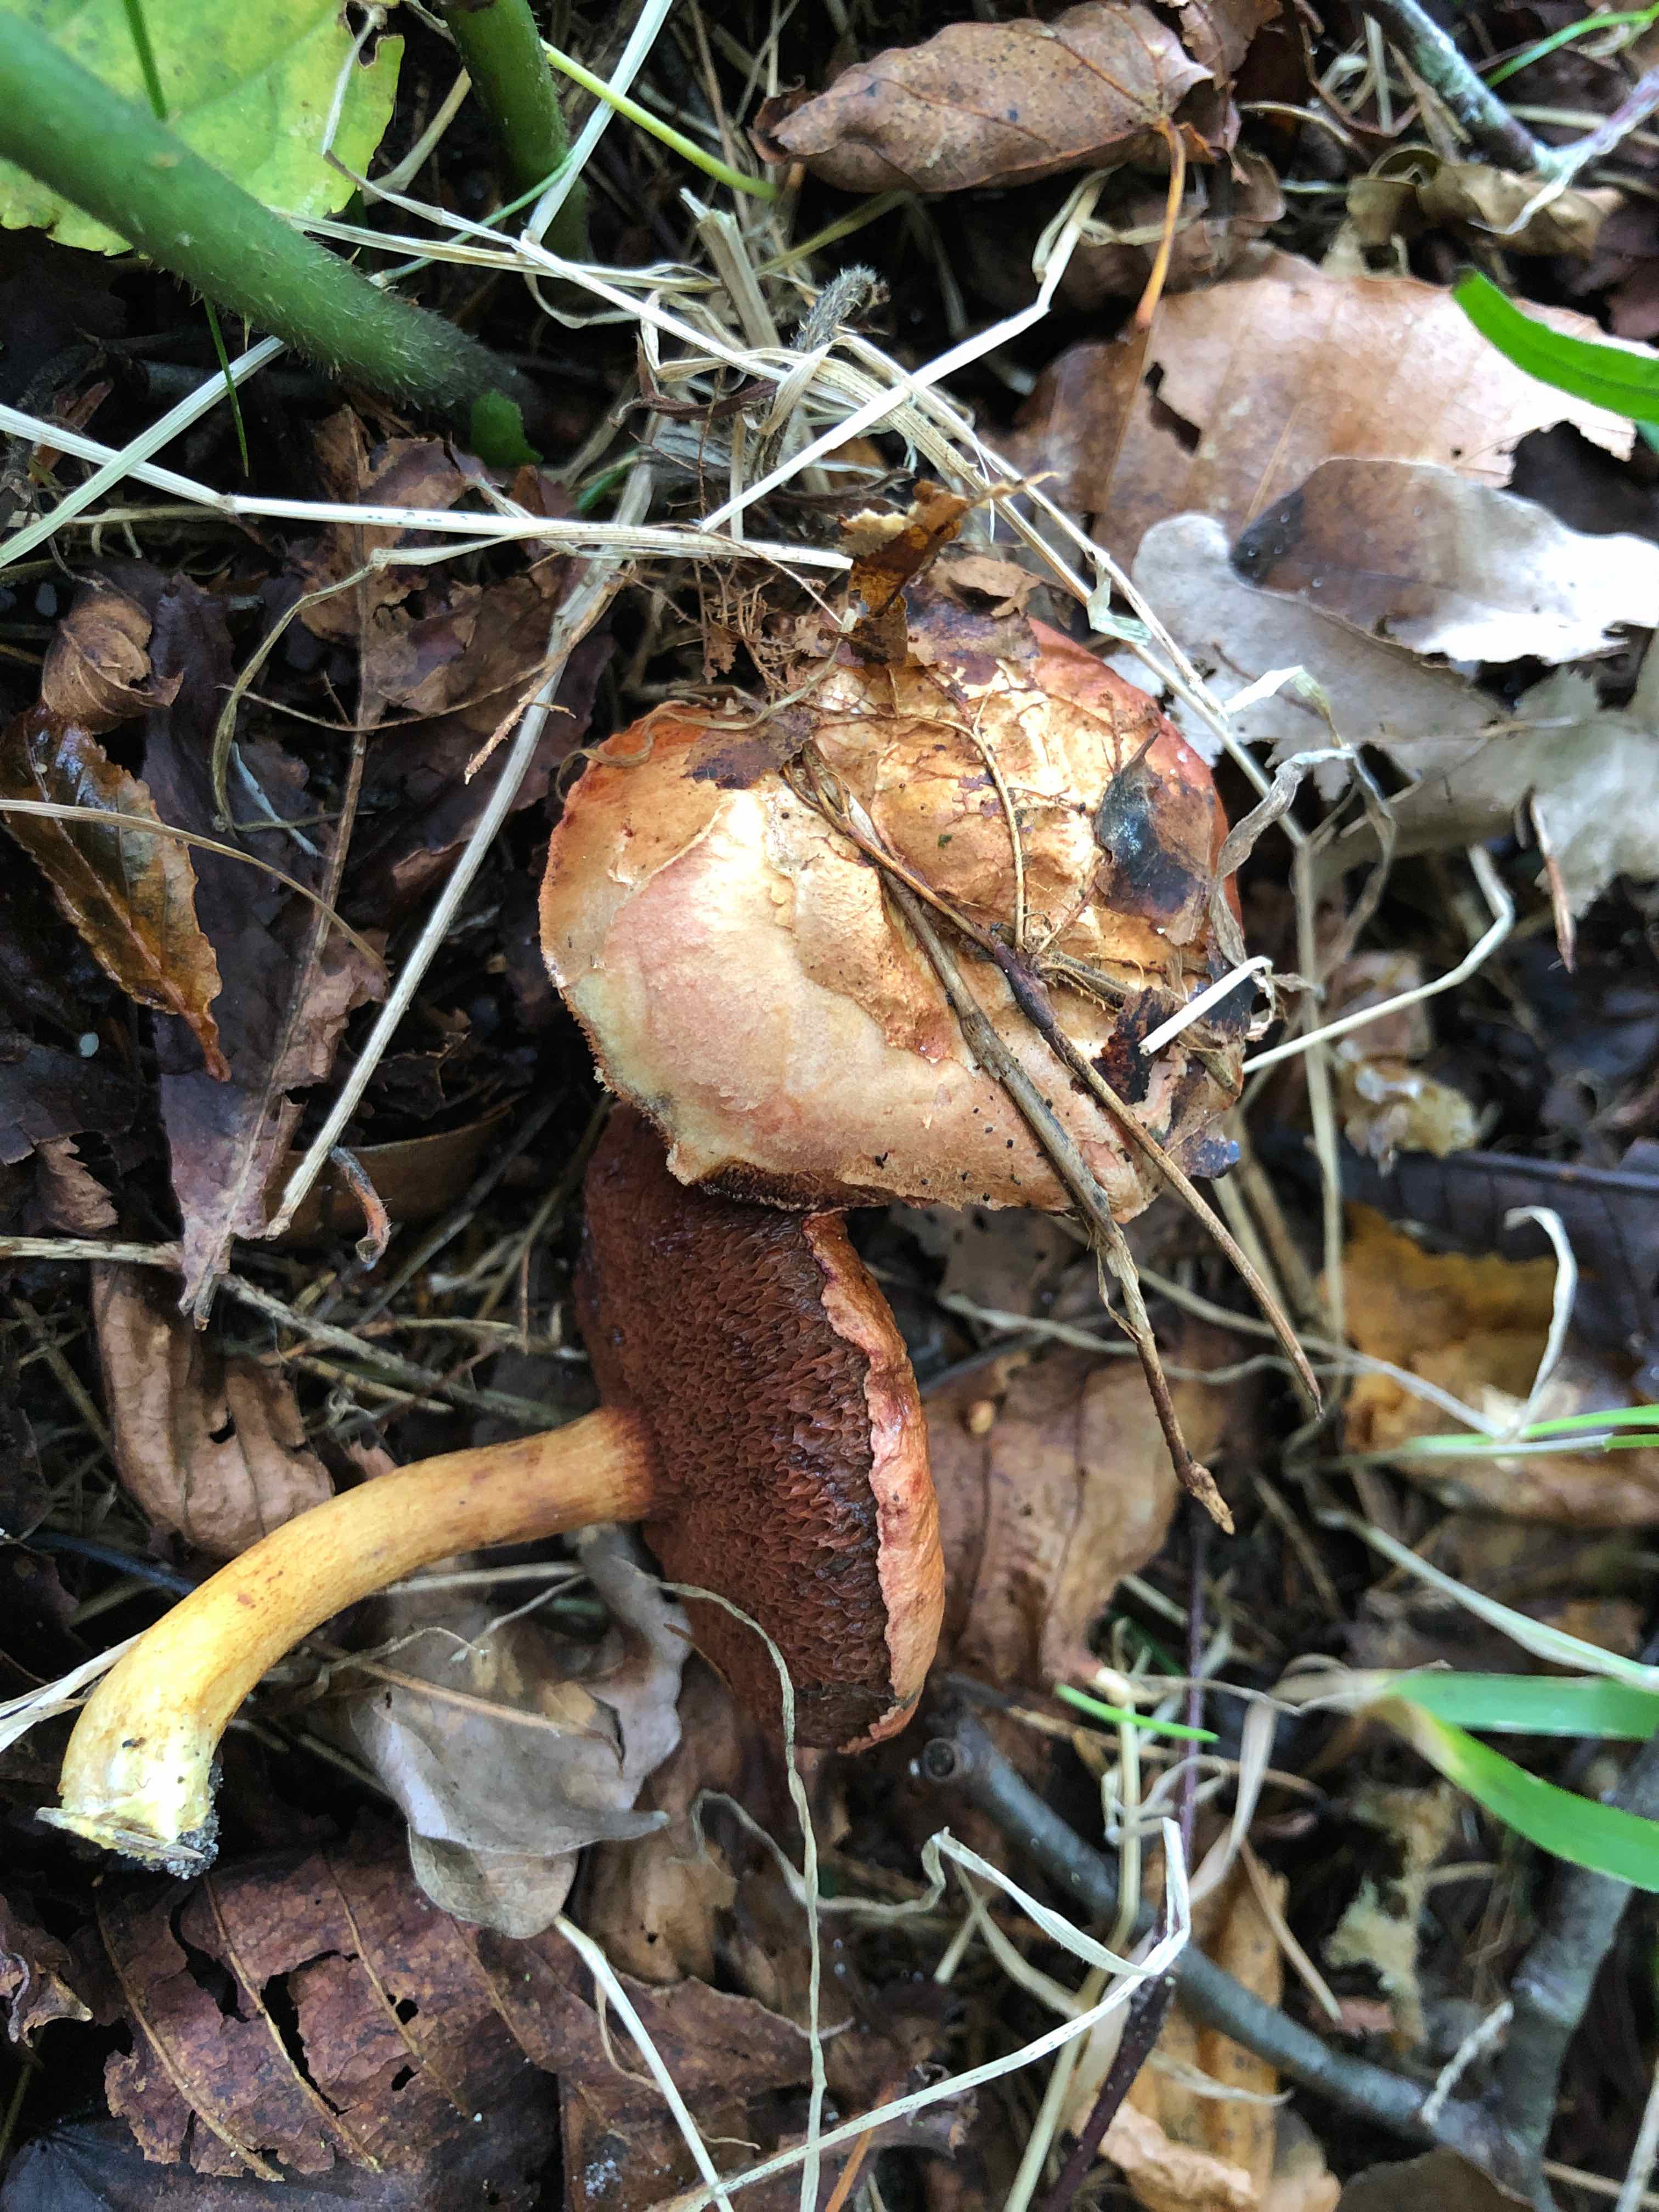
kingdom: Fungi
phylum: Basidiomycota
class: Agaricomycetes
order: Boletales
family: Boletaceae
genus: Chalciporus
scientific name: Chalciporus piperatus
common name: peberrørhat
